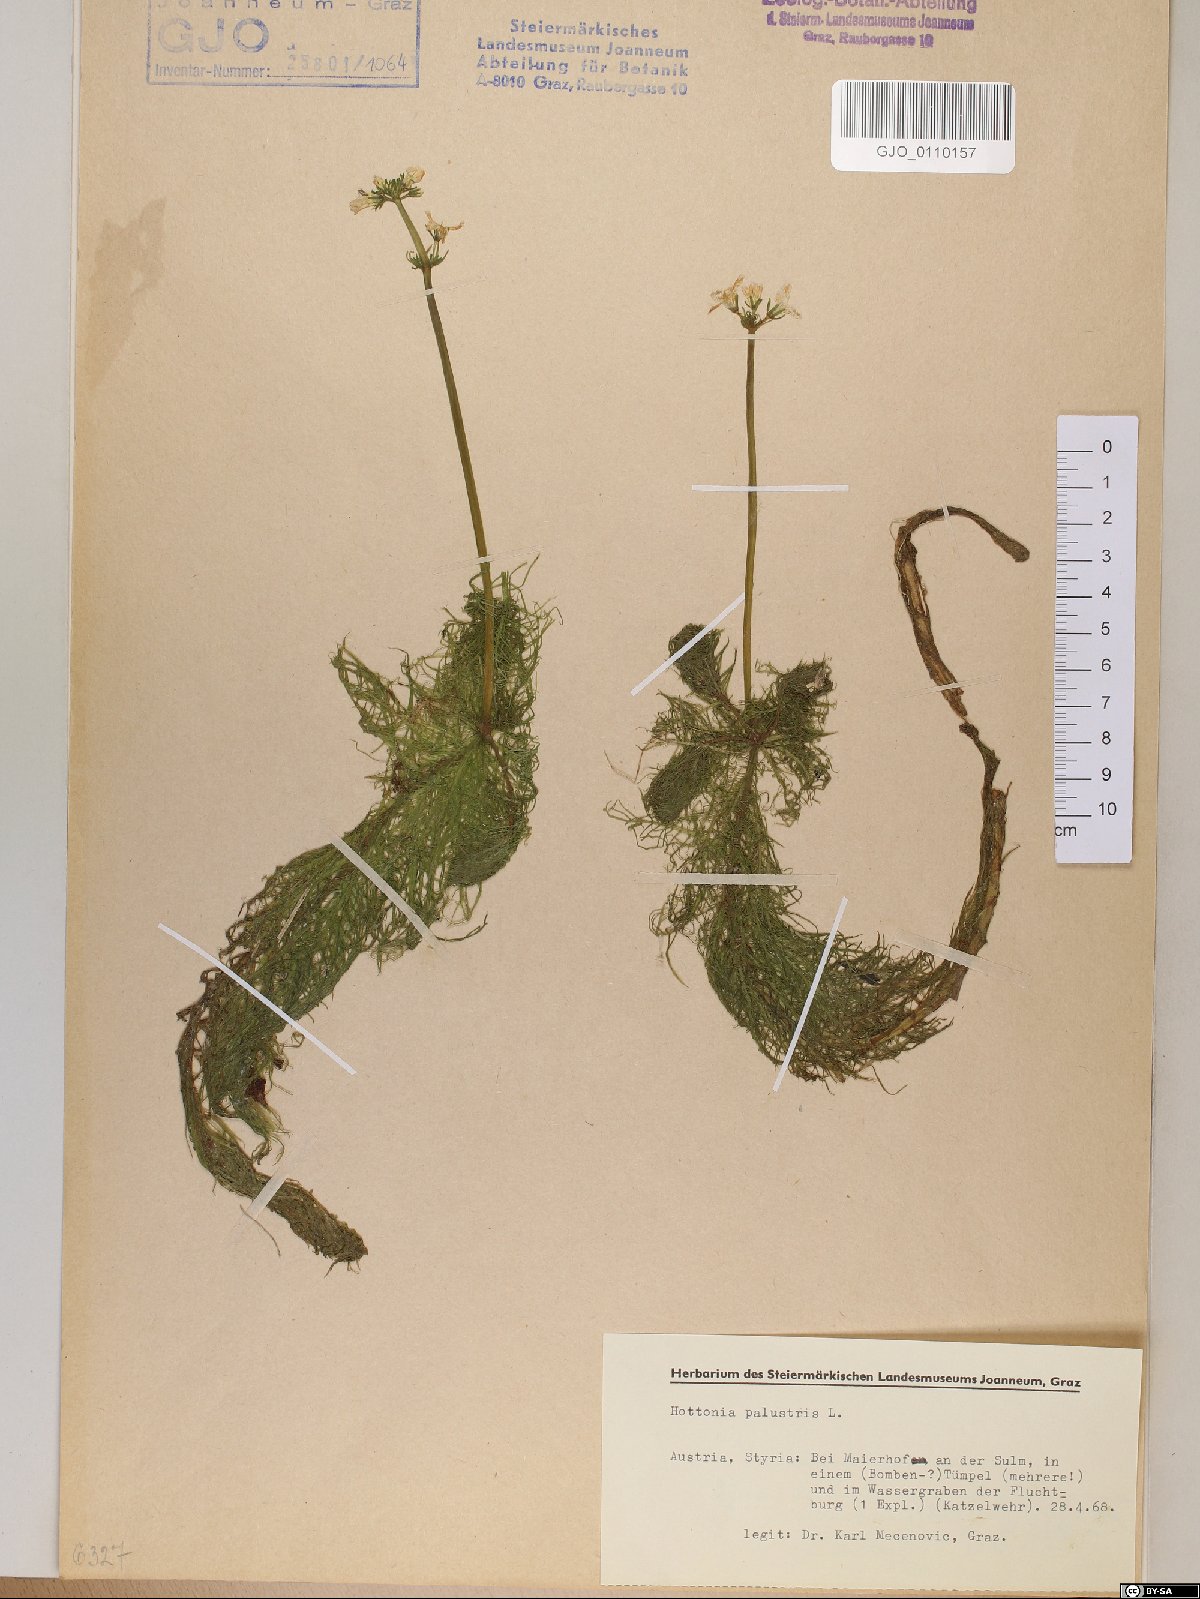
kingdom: Plantae
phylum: Tracheophyta
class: Magnoliopsida
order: Ericales
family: Primulaceae
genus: Hottonia
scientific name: Hottonia palustris
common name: Water-violet
